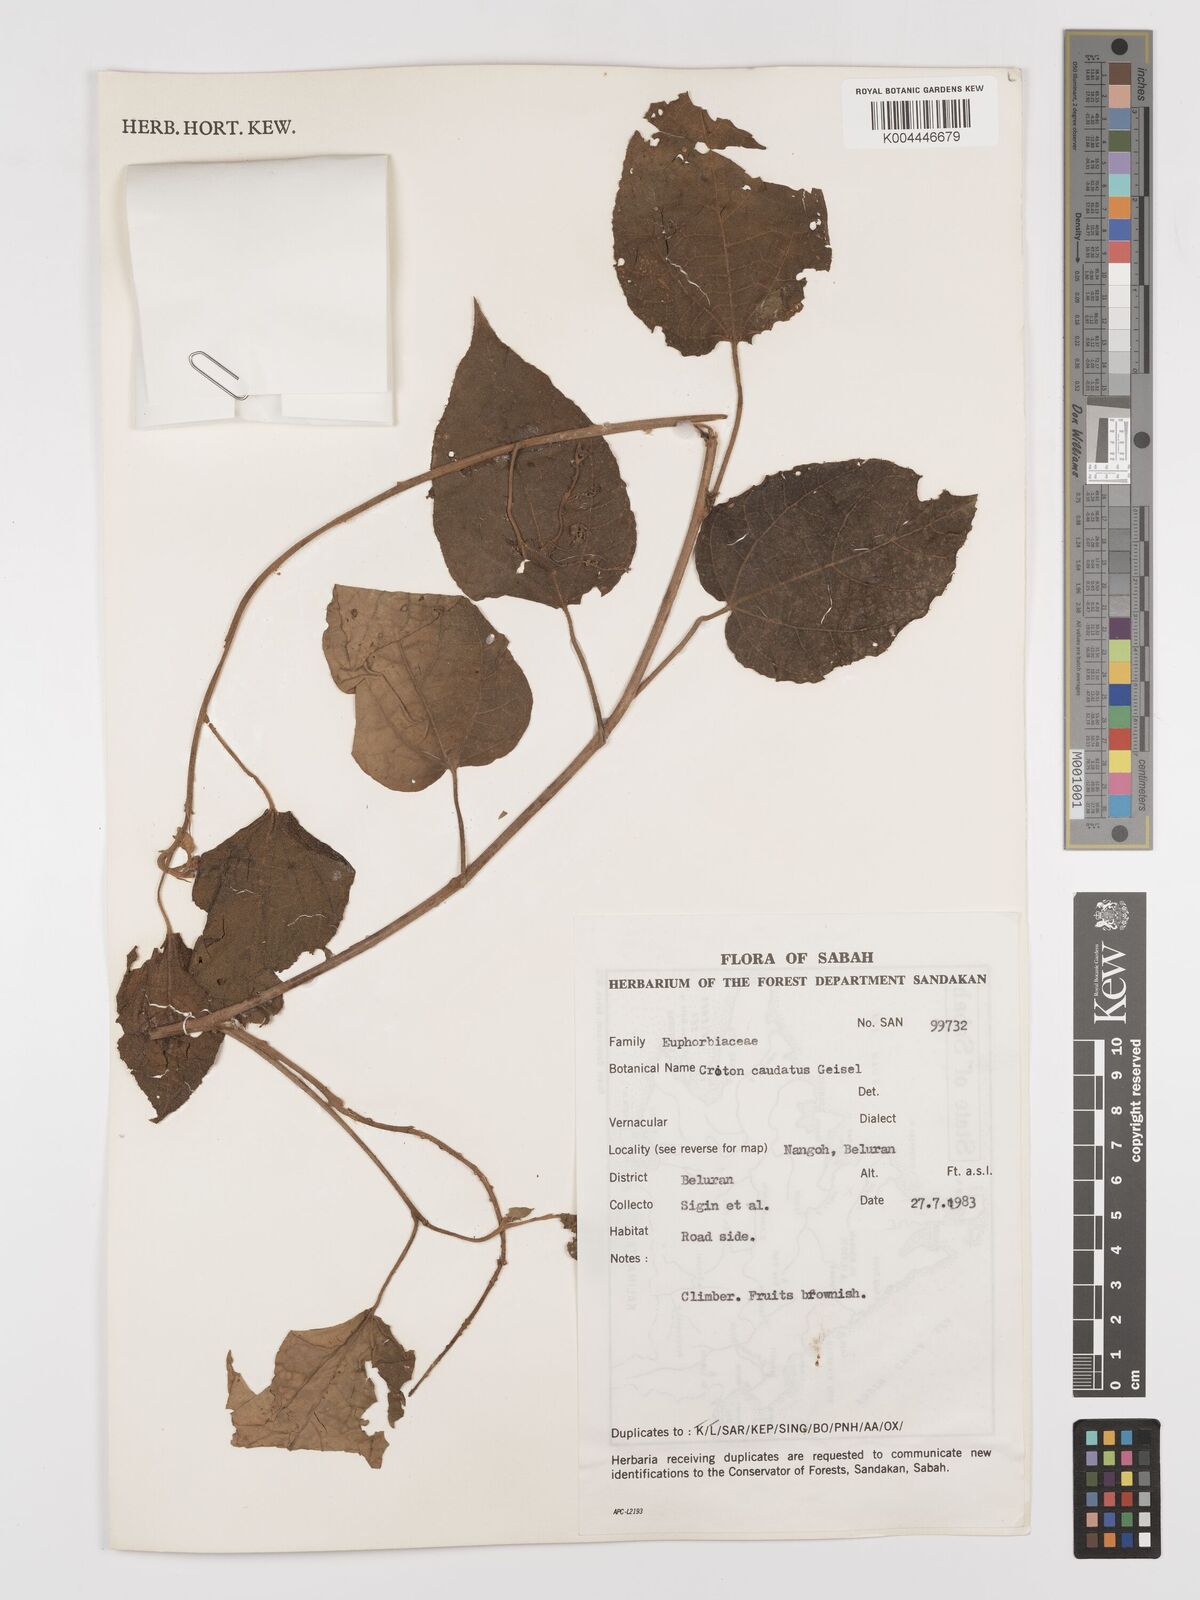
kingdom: Plantae
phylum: Tracheophyta
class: Magnoliopsida
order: Malpighiales
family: Euphorbiaceae
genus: Croton
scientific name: Croton caudatus
